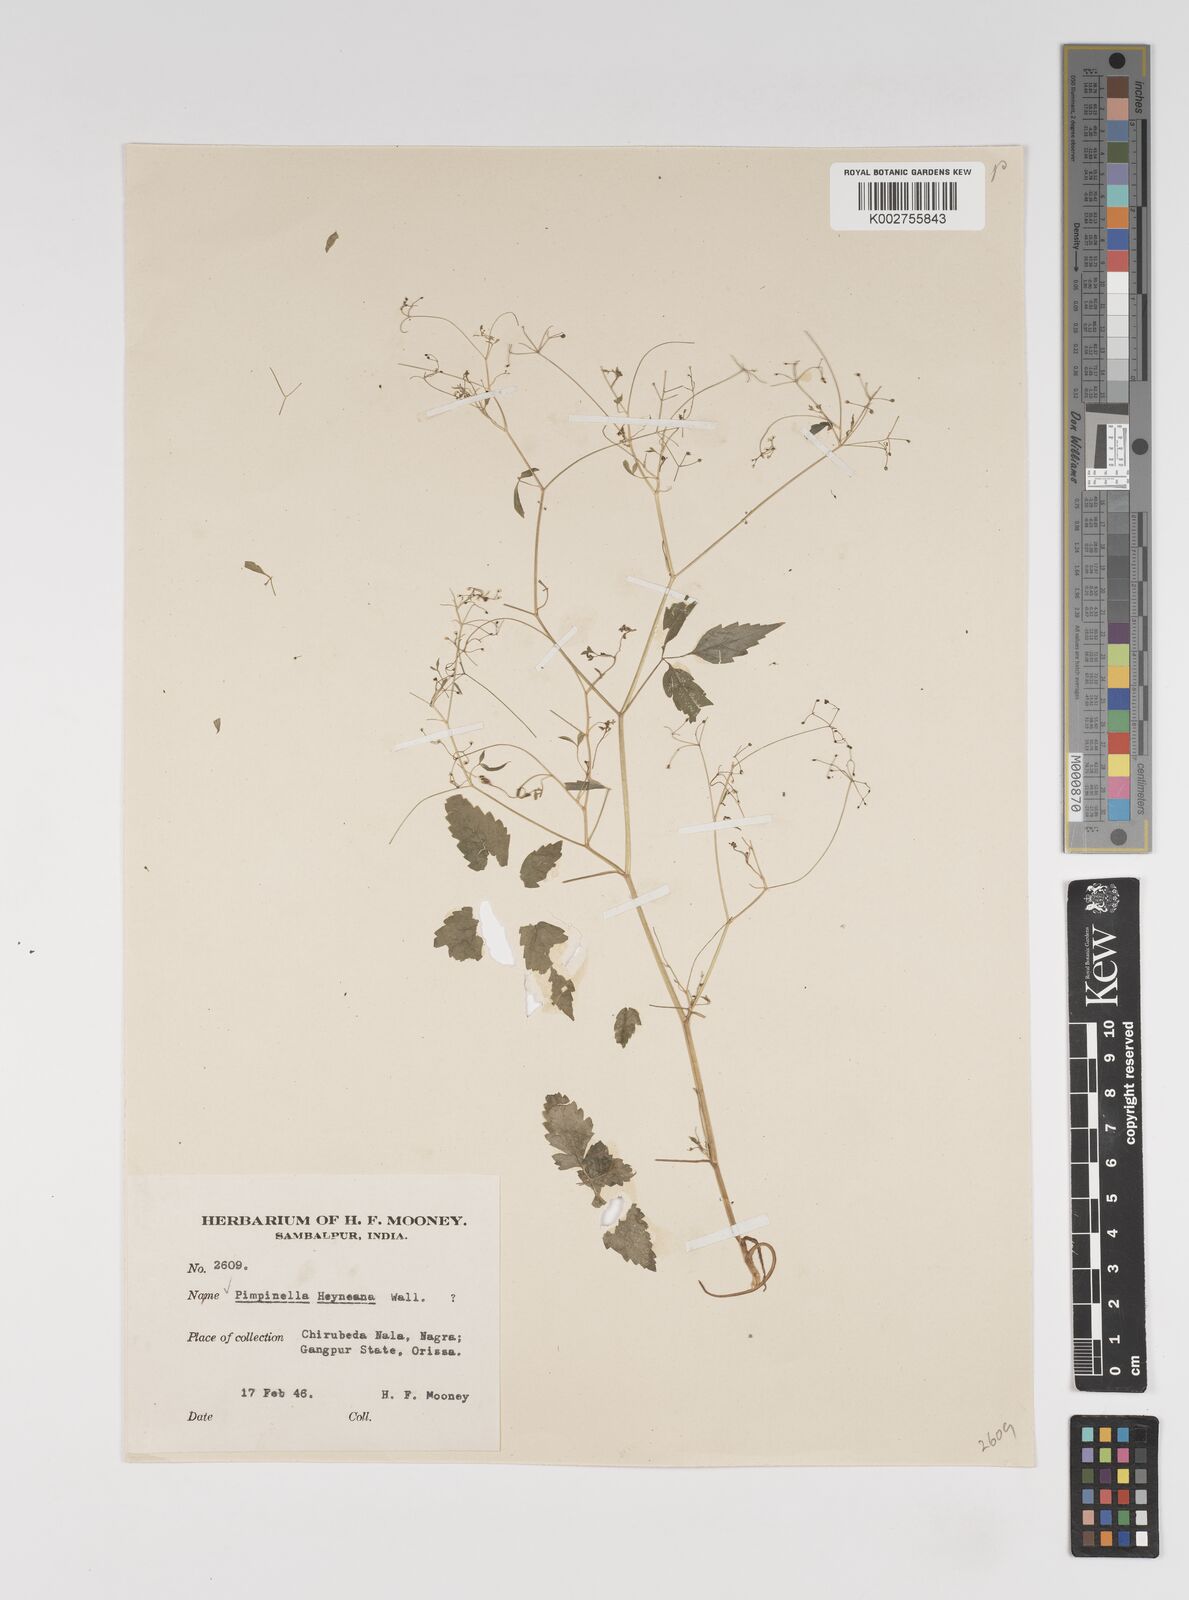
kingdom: Plantae
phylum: Tracheophyta
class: Magnoliopsida
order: Apiales
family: Apiaceae
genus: Pimpinella
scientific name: Pimpinella heyneana
